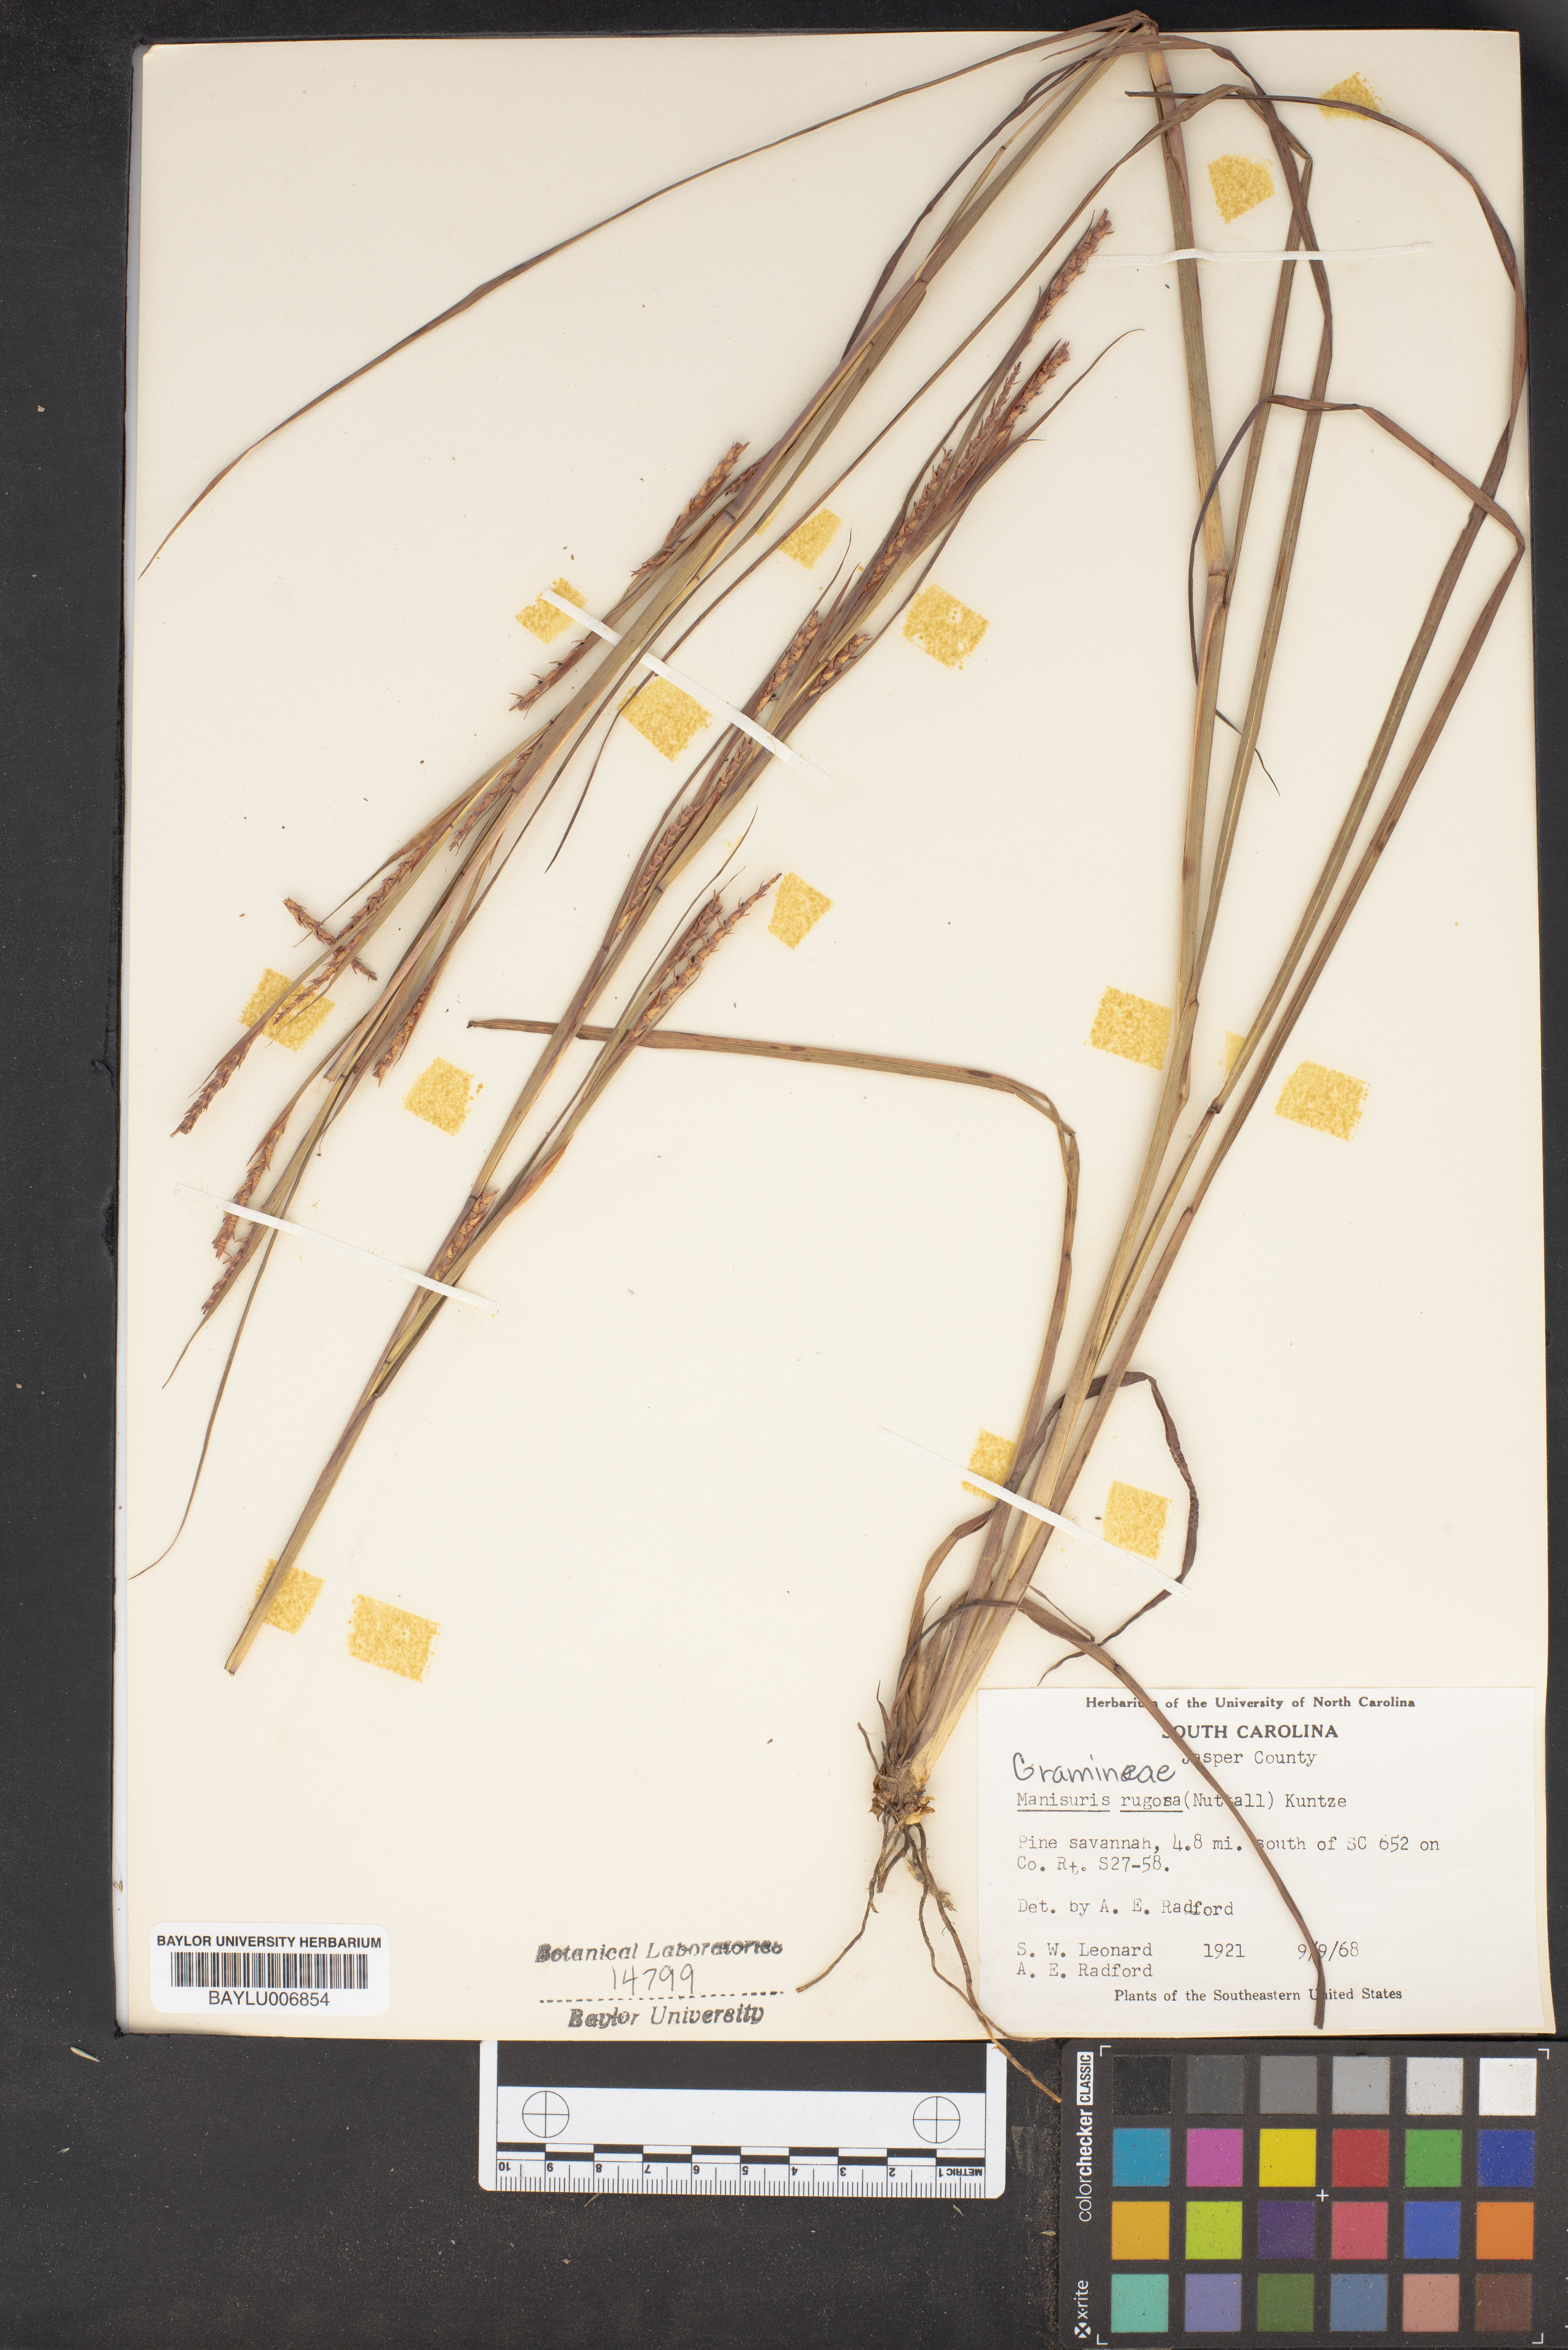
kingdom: Plantae
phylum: Tracheophyta
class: Liliopsida
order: Poales
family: Poaceae
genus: Rottboellia
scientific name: Rottboellia rugosa
